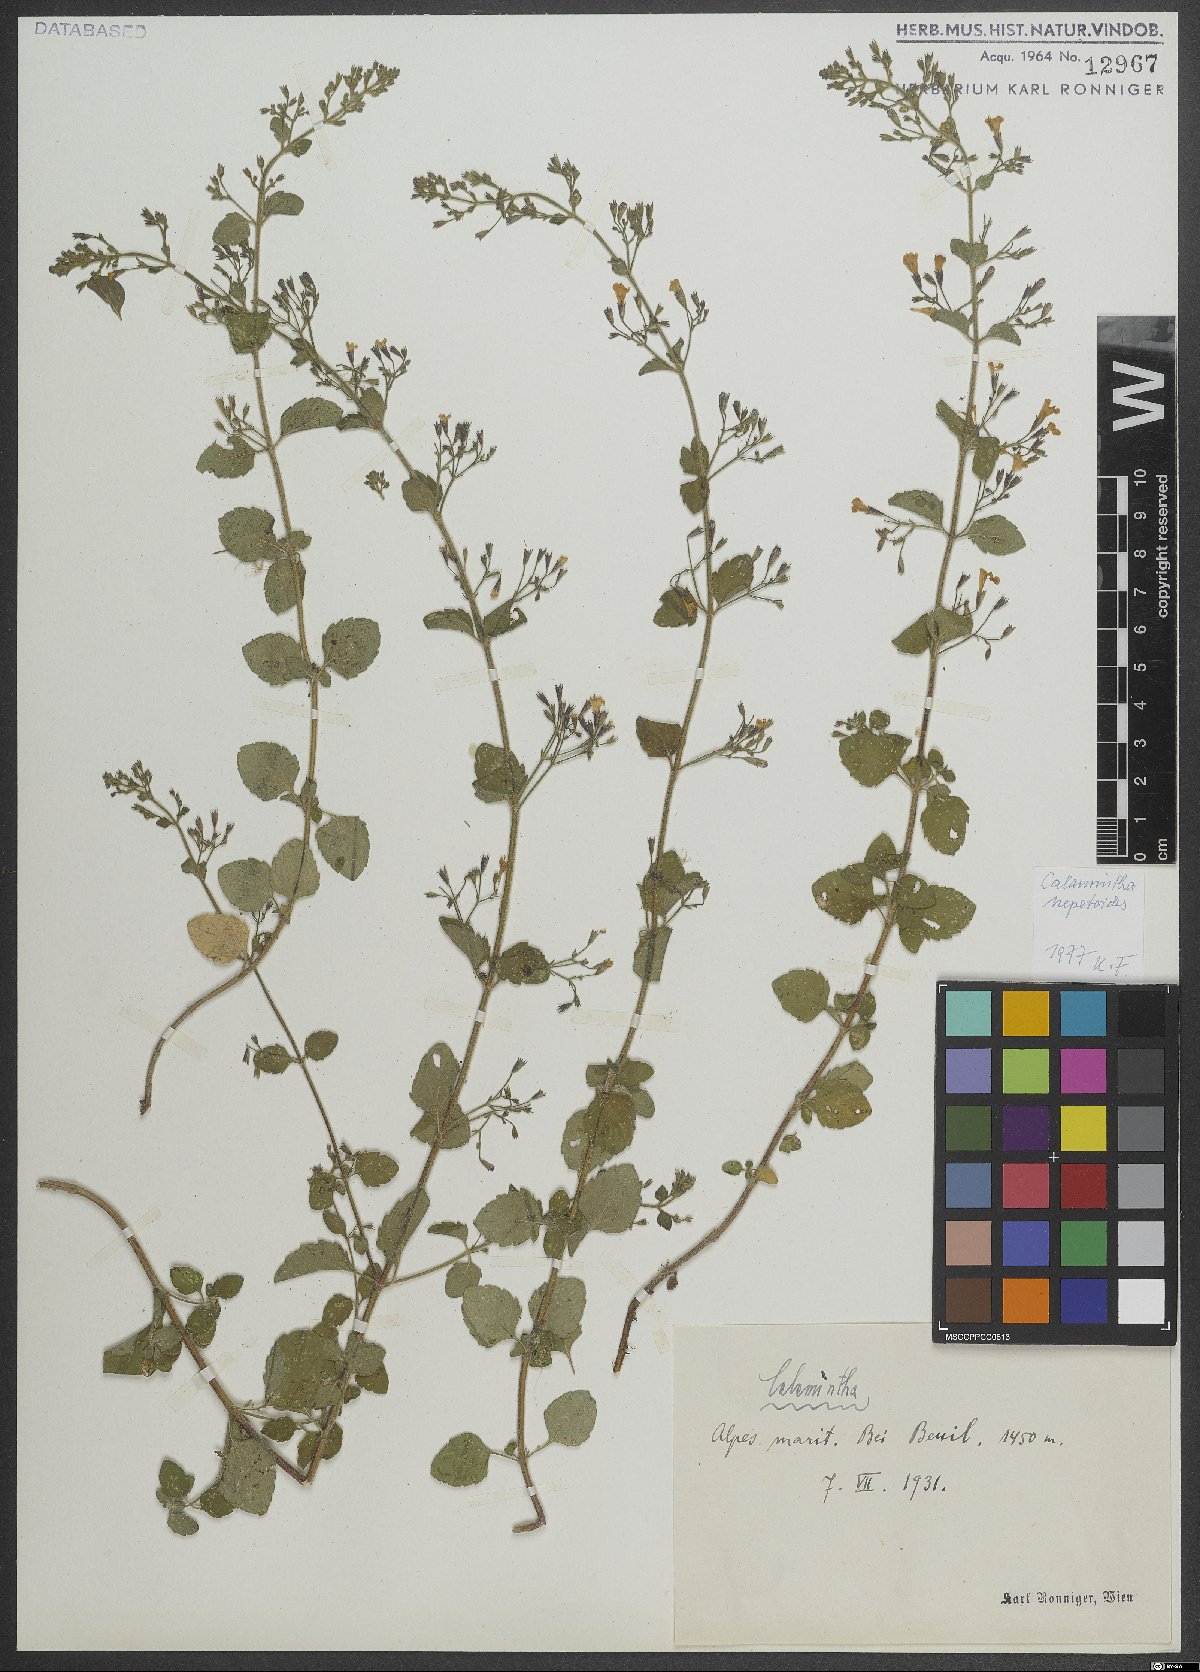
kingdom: Plantae
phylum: Tracheophyta
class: Magnoliopsida
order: Lamiales
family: Lamiaceae
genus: Clinopodium
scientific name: Clinopodium nepeta
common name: Lesser calamint
